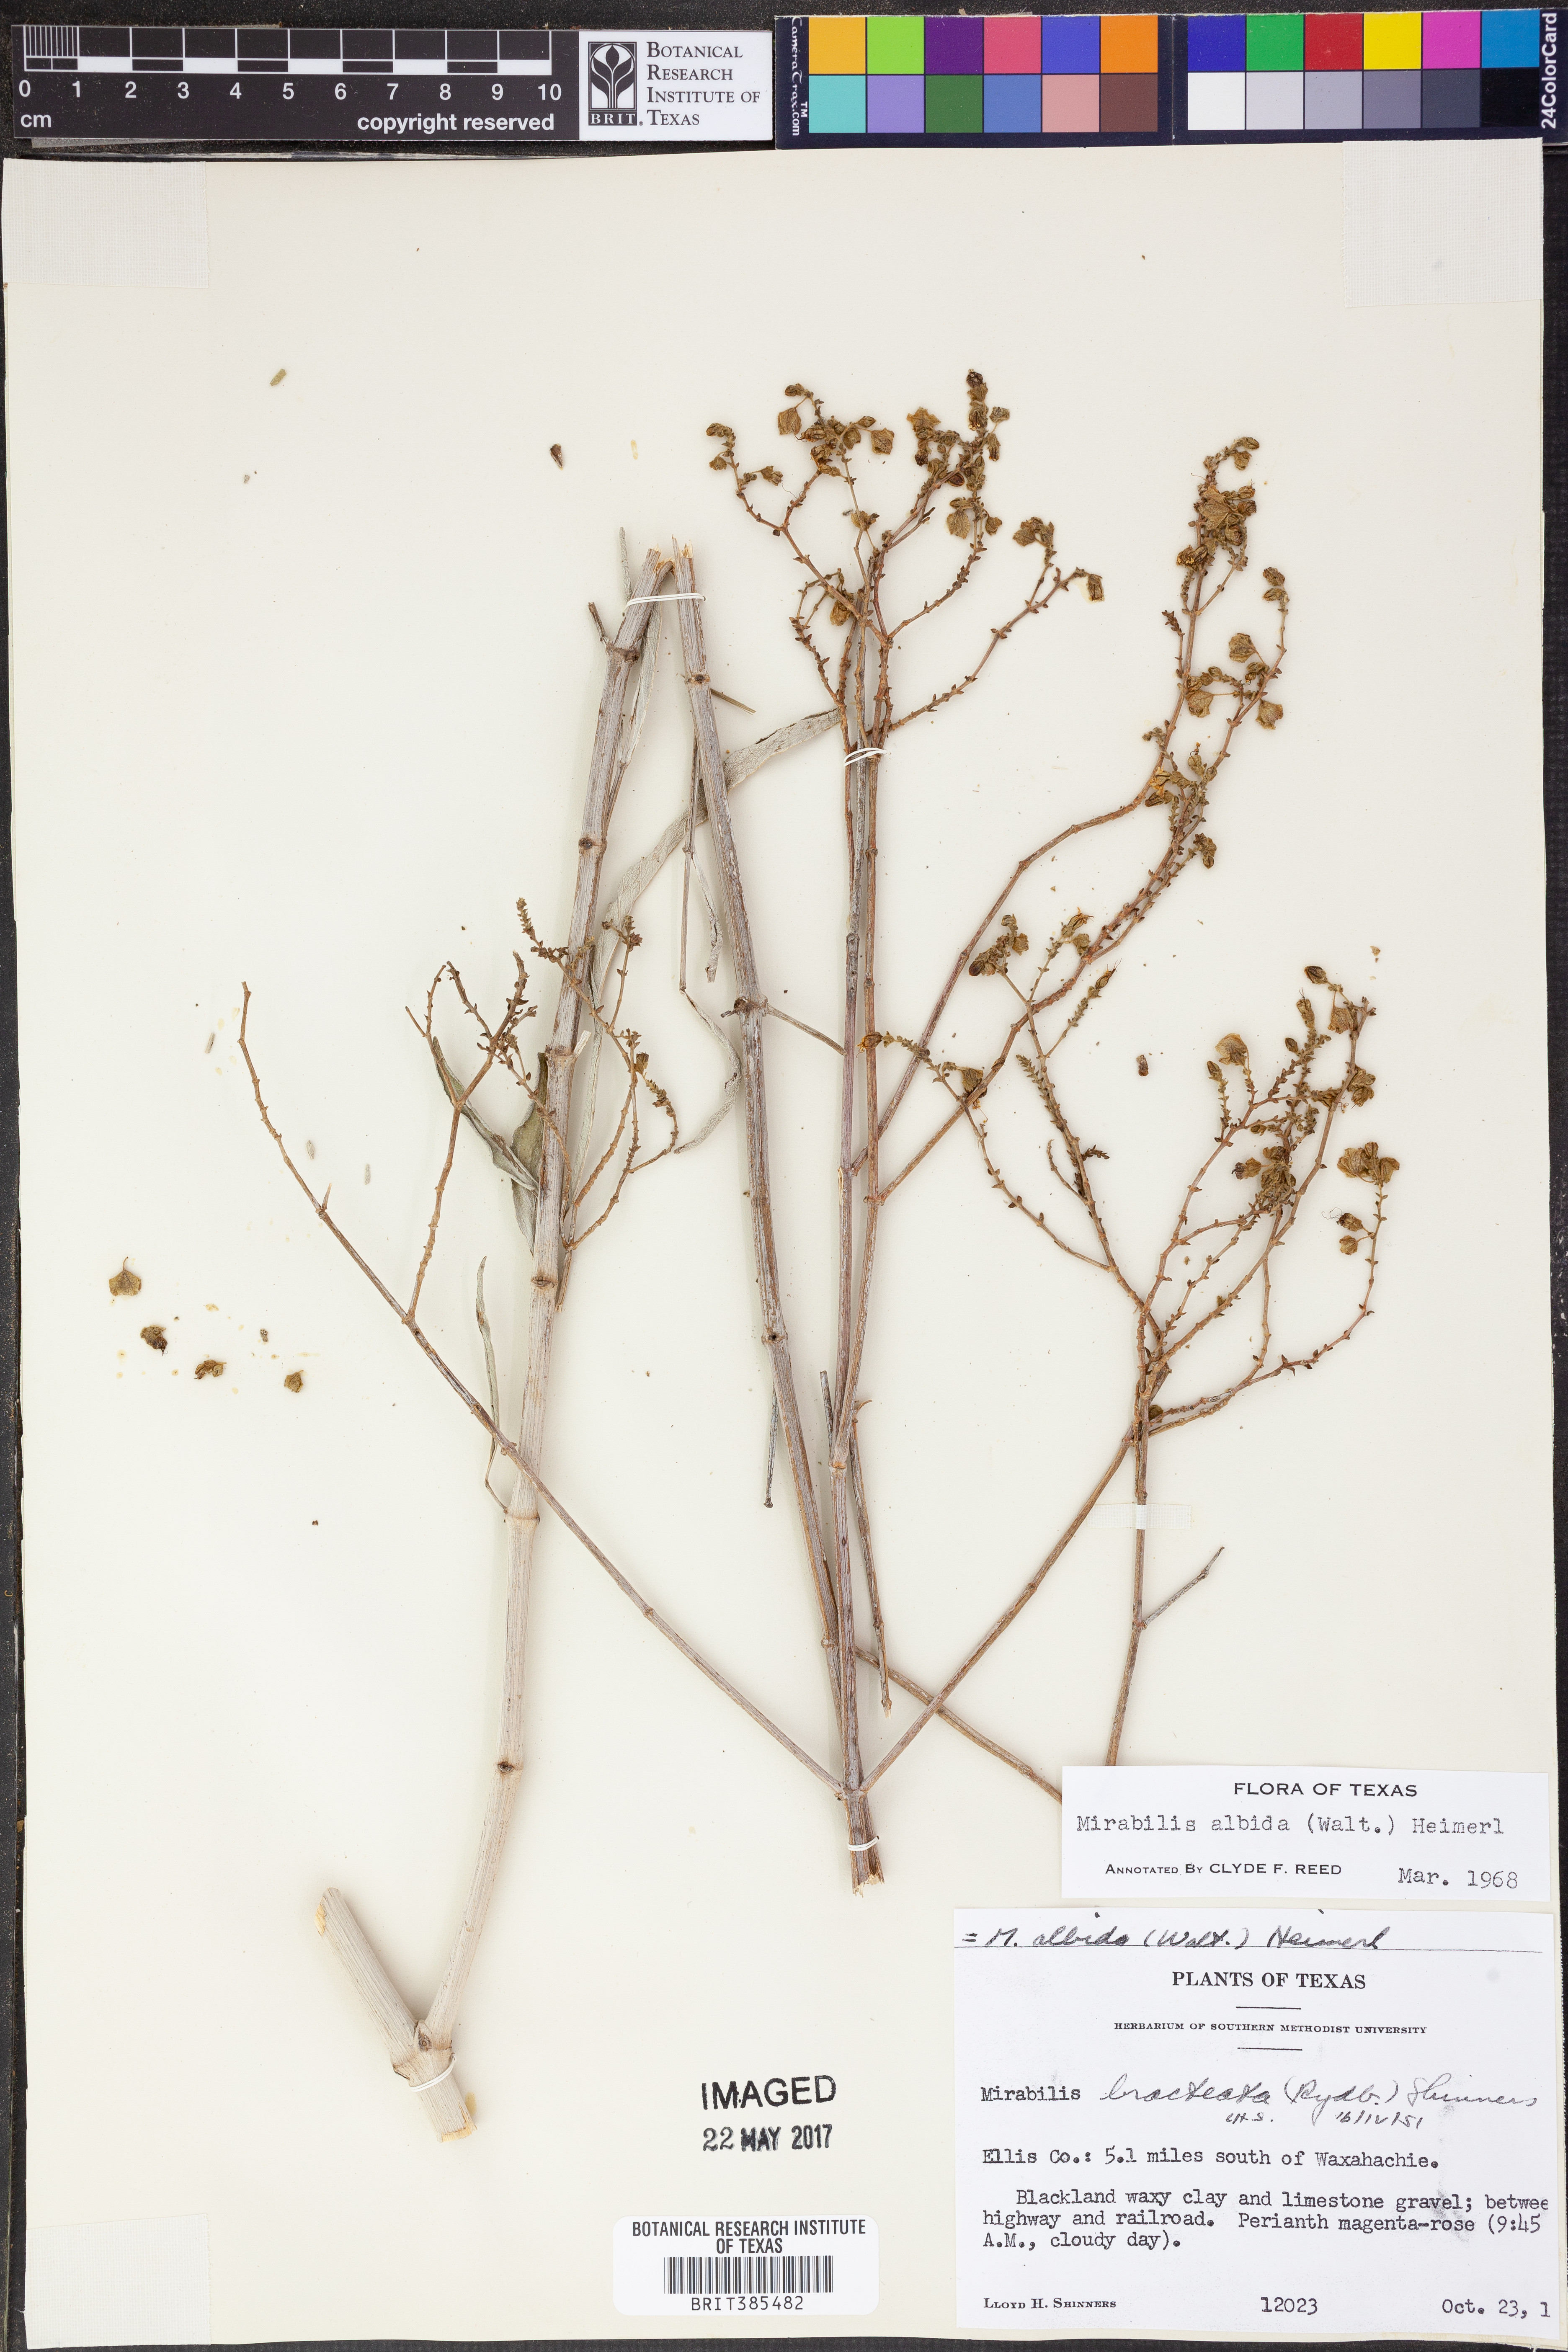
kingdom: Plantae
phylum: Tracheophyta
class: Magnoliopsida
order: Caryophyllales
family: Nyctaginaceae
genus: Mirabilis
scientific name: Mirabilis albida
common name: Hairy four-o'clock
